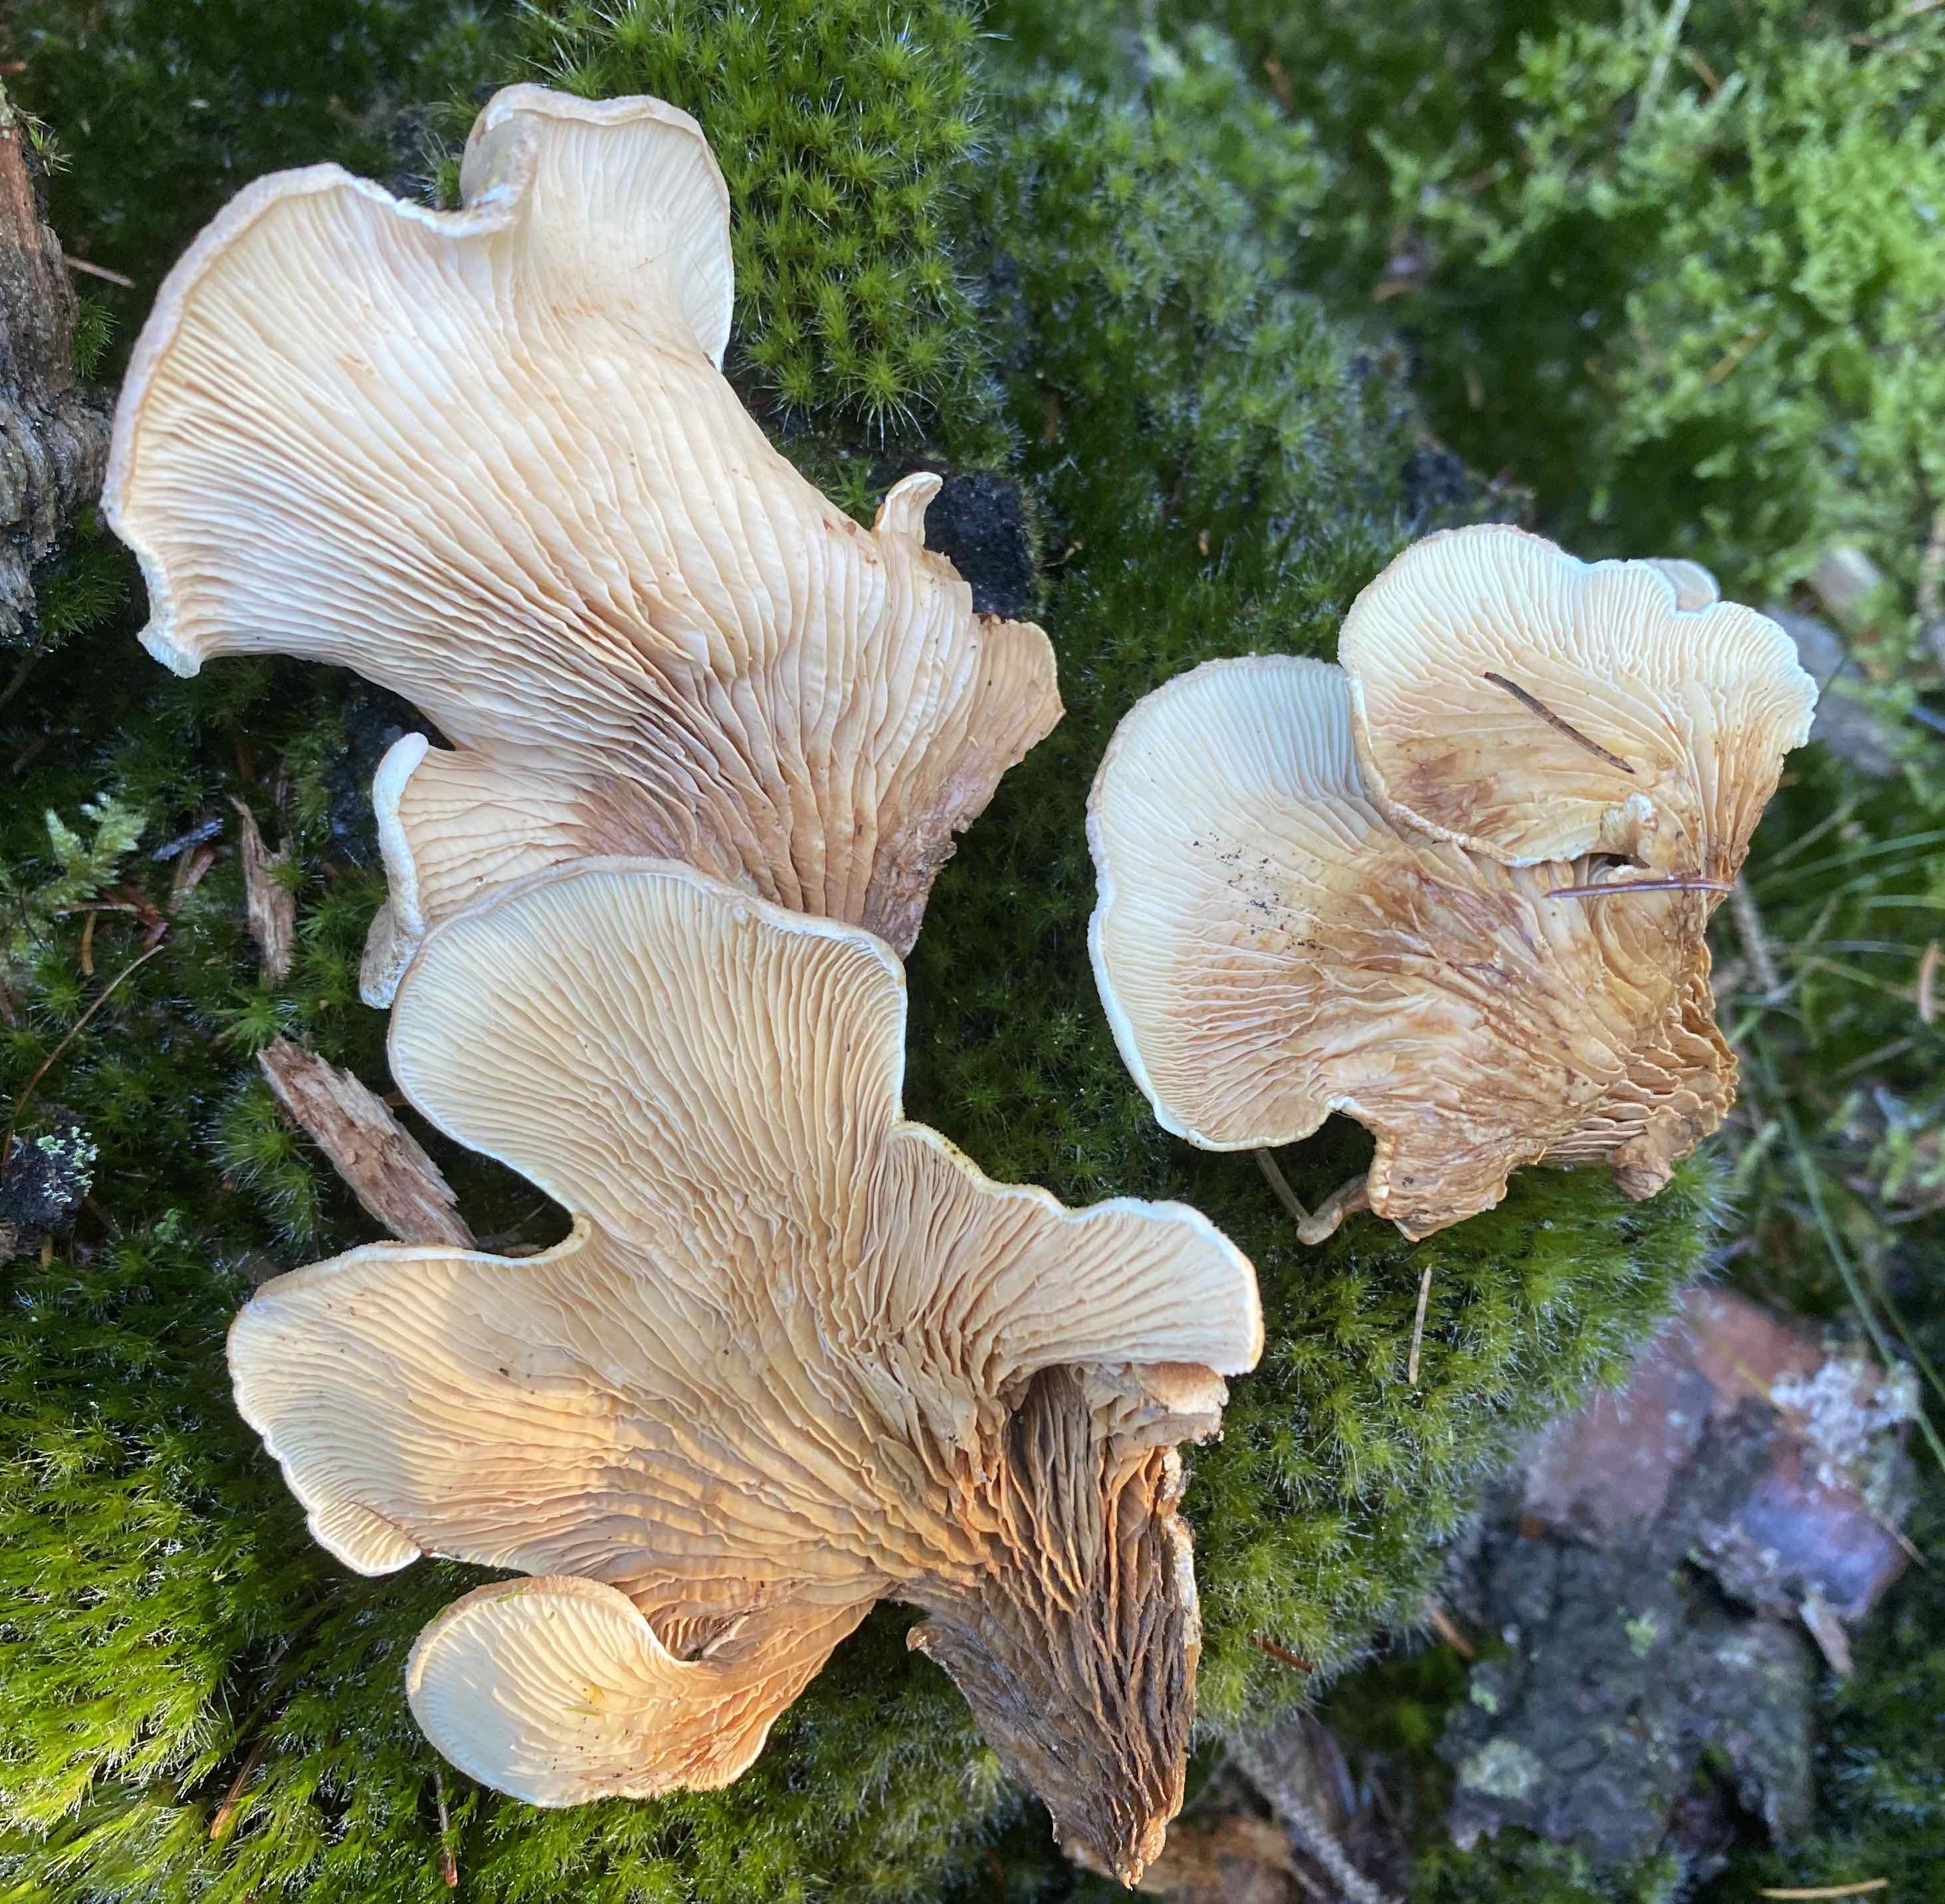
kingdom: Fungi
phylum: Basidiomycota
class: Agaricomycetes
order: Boletales
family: Tapinellaceae
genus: Tapinella
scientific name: Tapinella panuoides
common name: tømmer-viftesvamp
